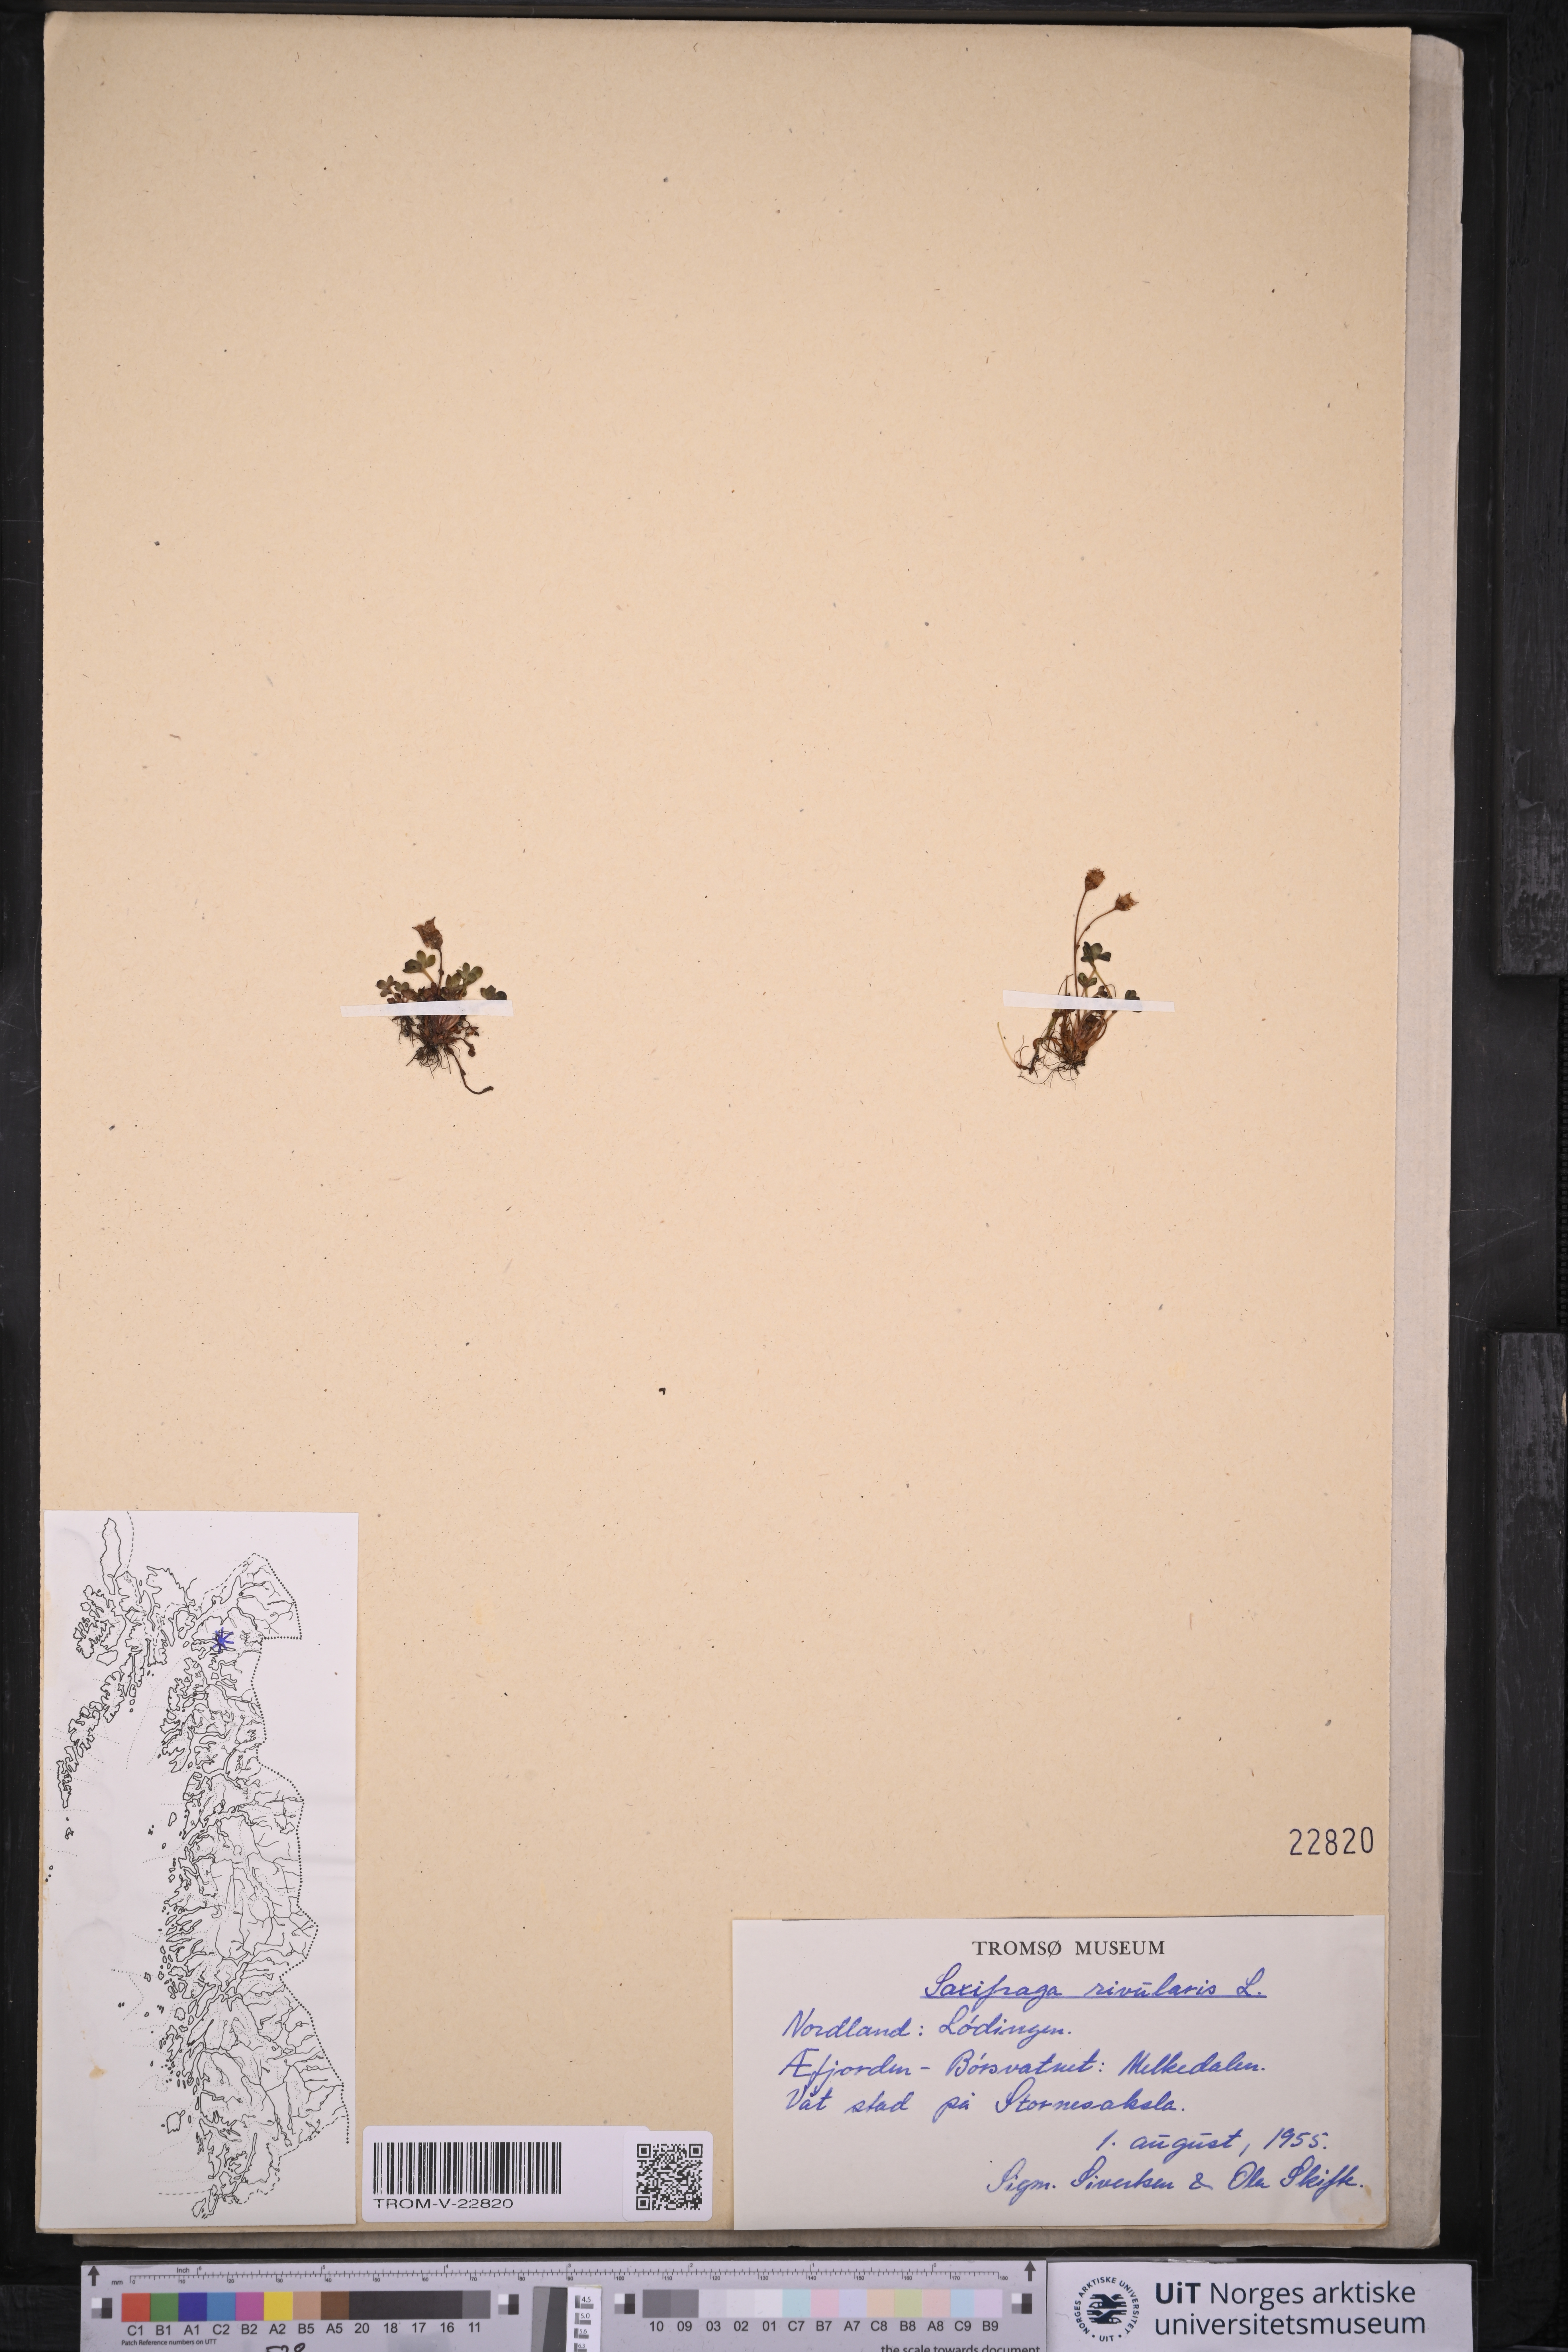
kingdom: Plantae
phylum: Tracheophyta
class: Magnoliopsida
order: Saxifragales
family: Saxifragaceae
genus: Saxifraga
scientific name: Saxifraga rivularis
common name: Highland saxifrage
